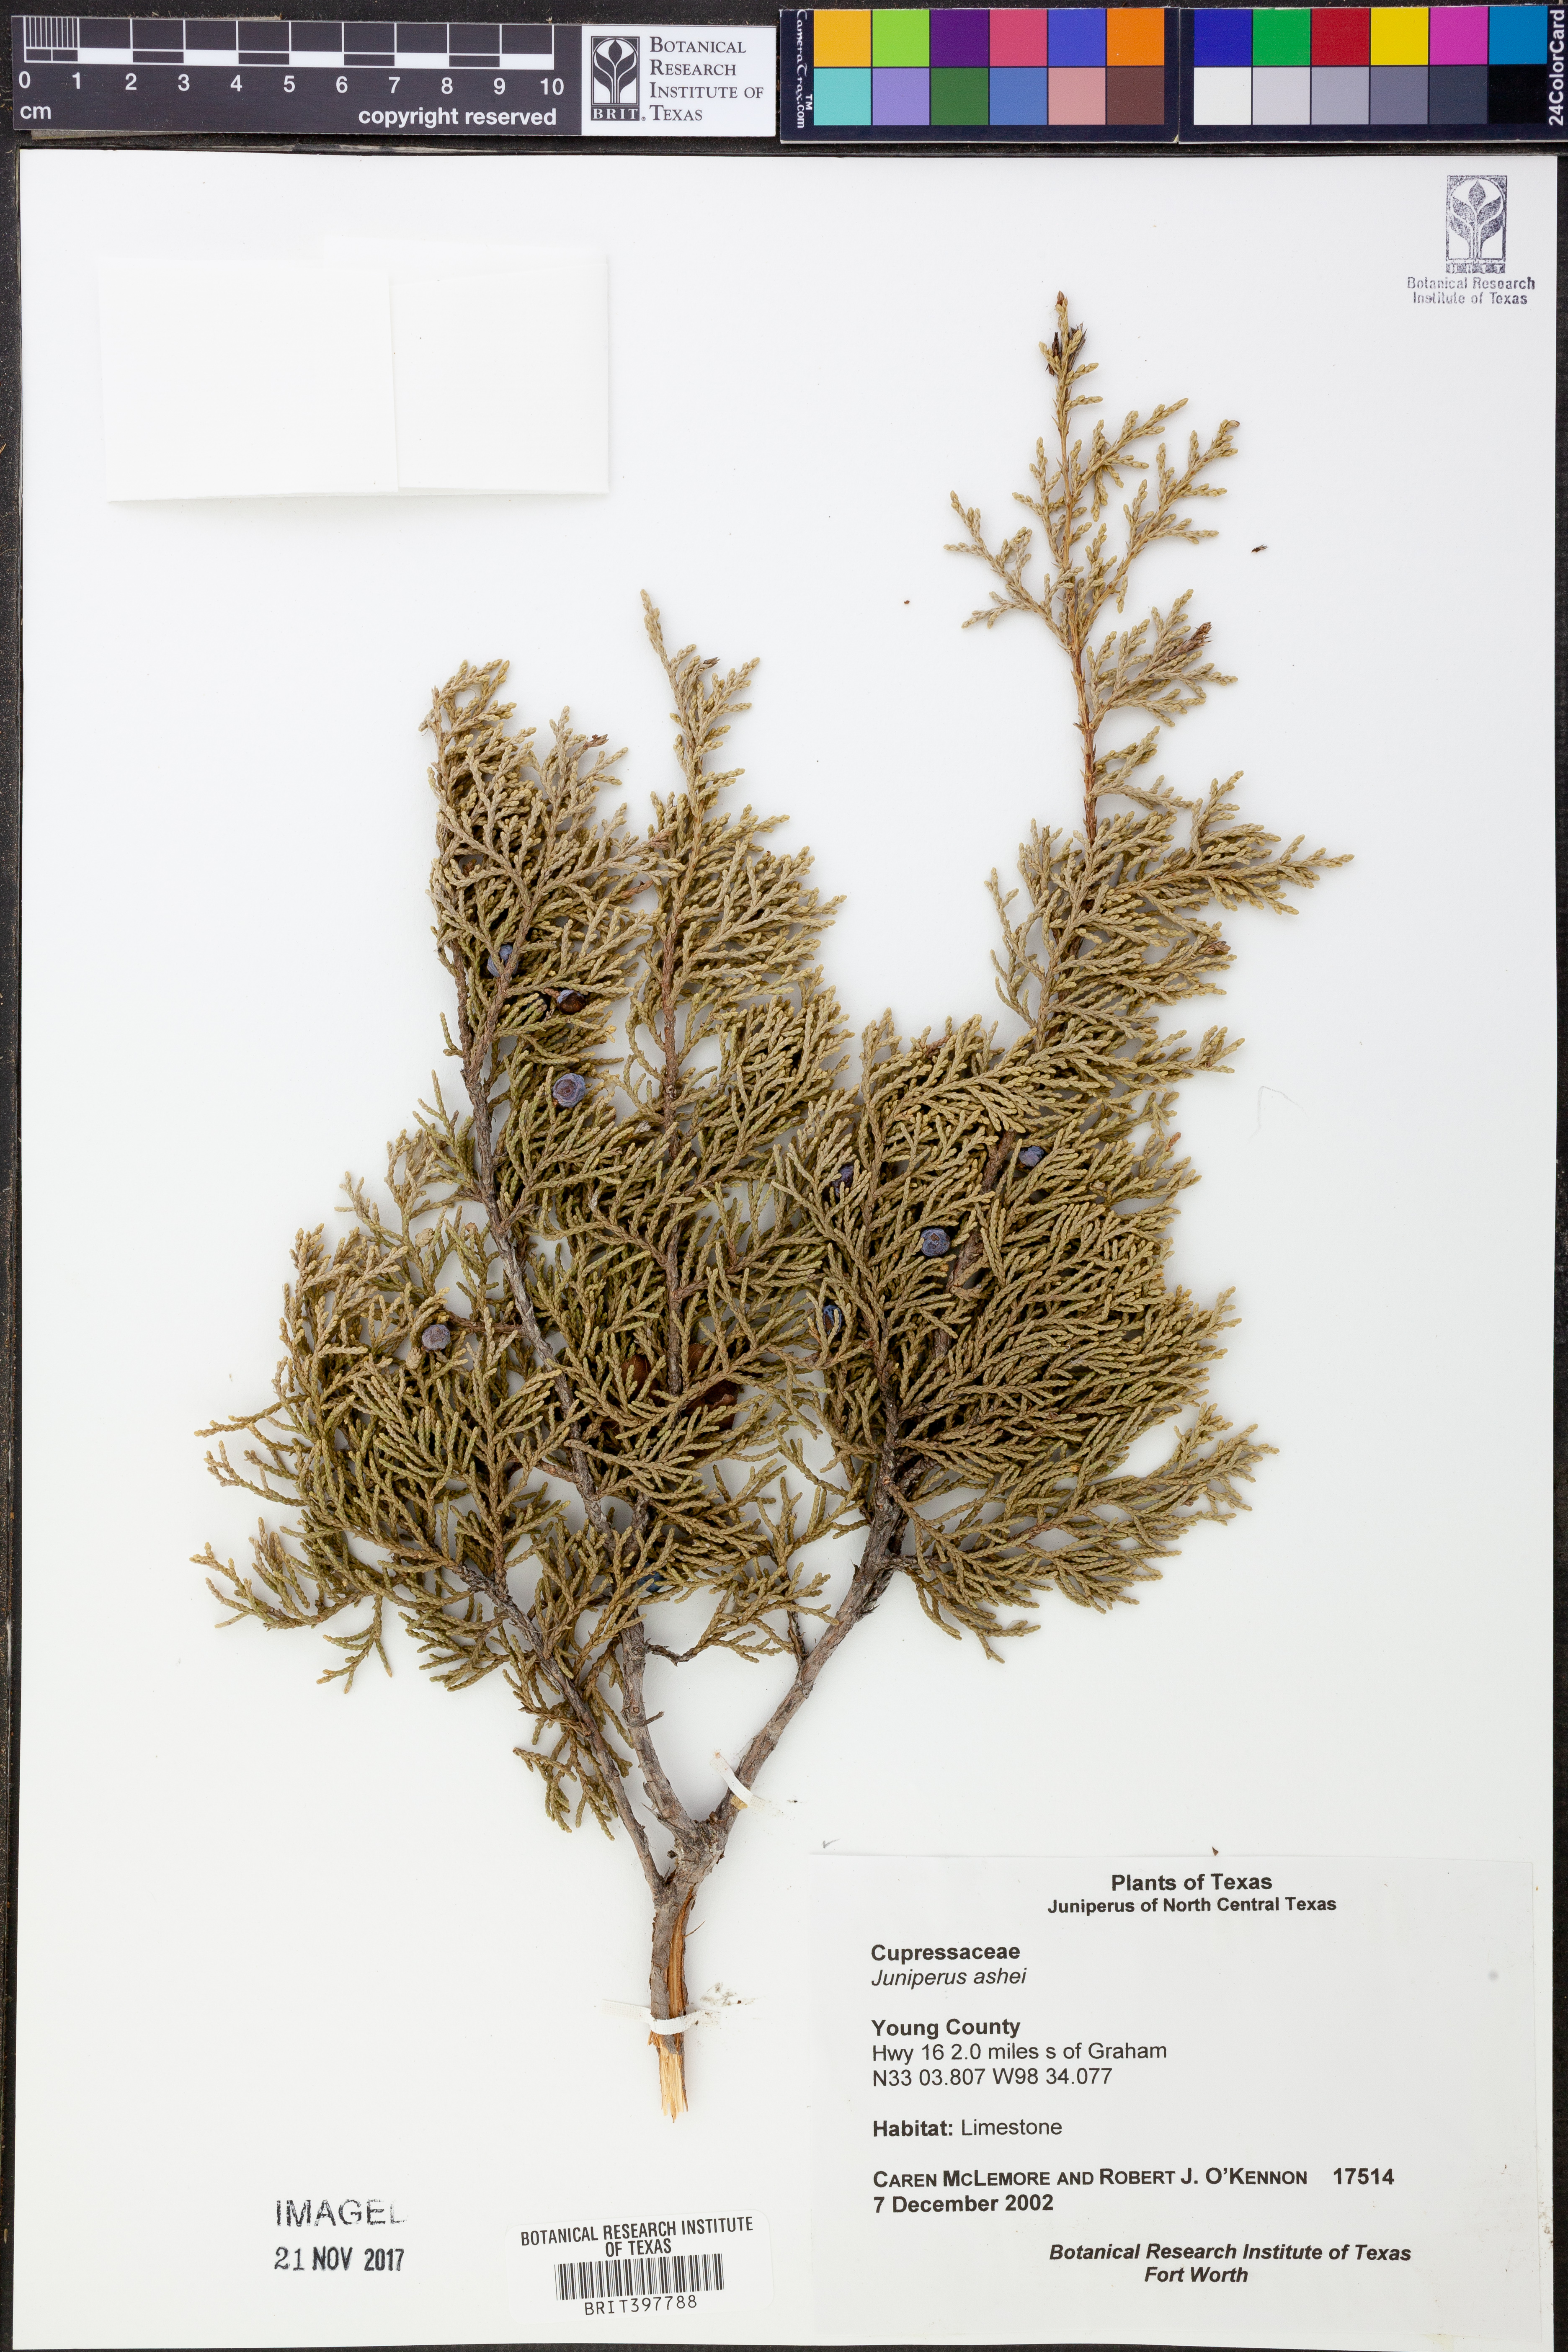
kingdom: Plantae
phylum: Tracheophyta
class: Pinopsida
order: Pinales
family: Cupressaceae
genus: Juniperus
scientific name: Juniperus ashei
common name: Mexican juniper
